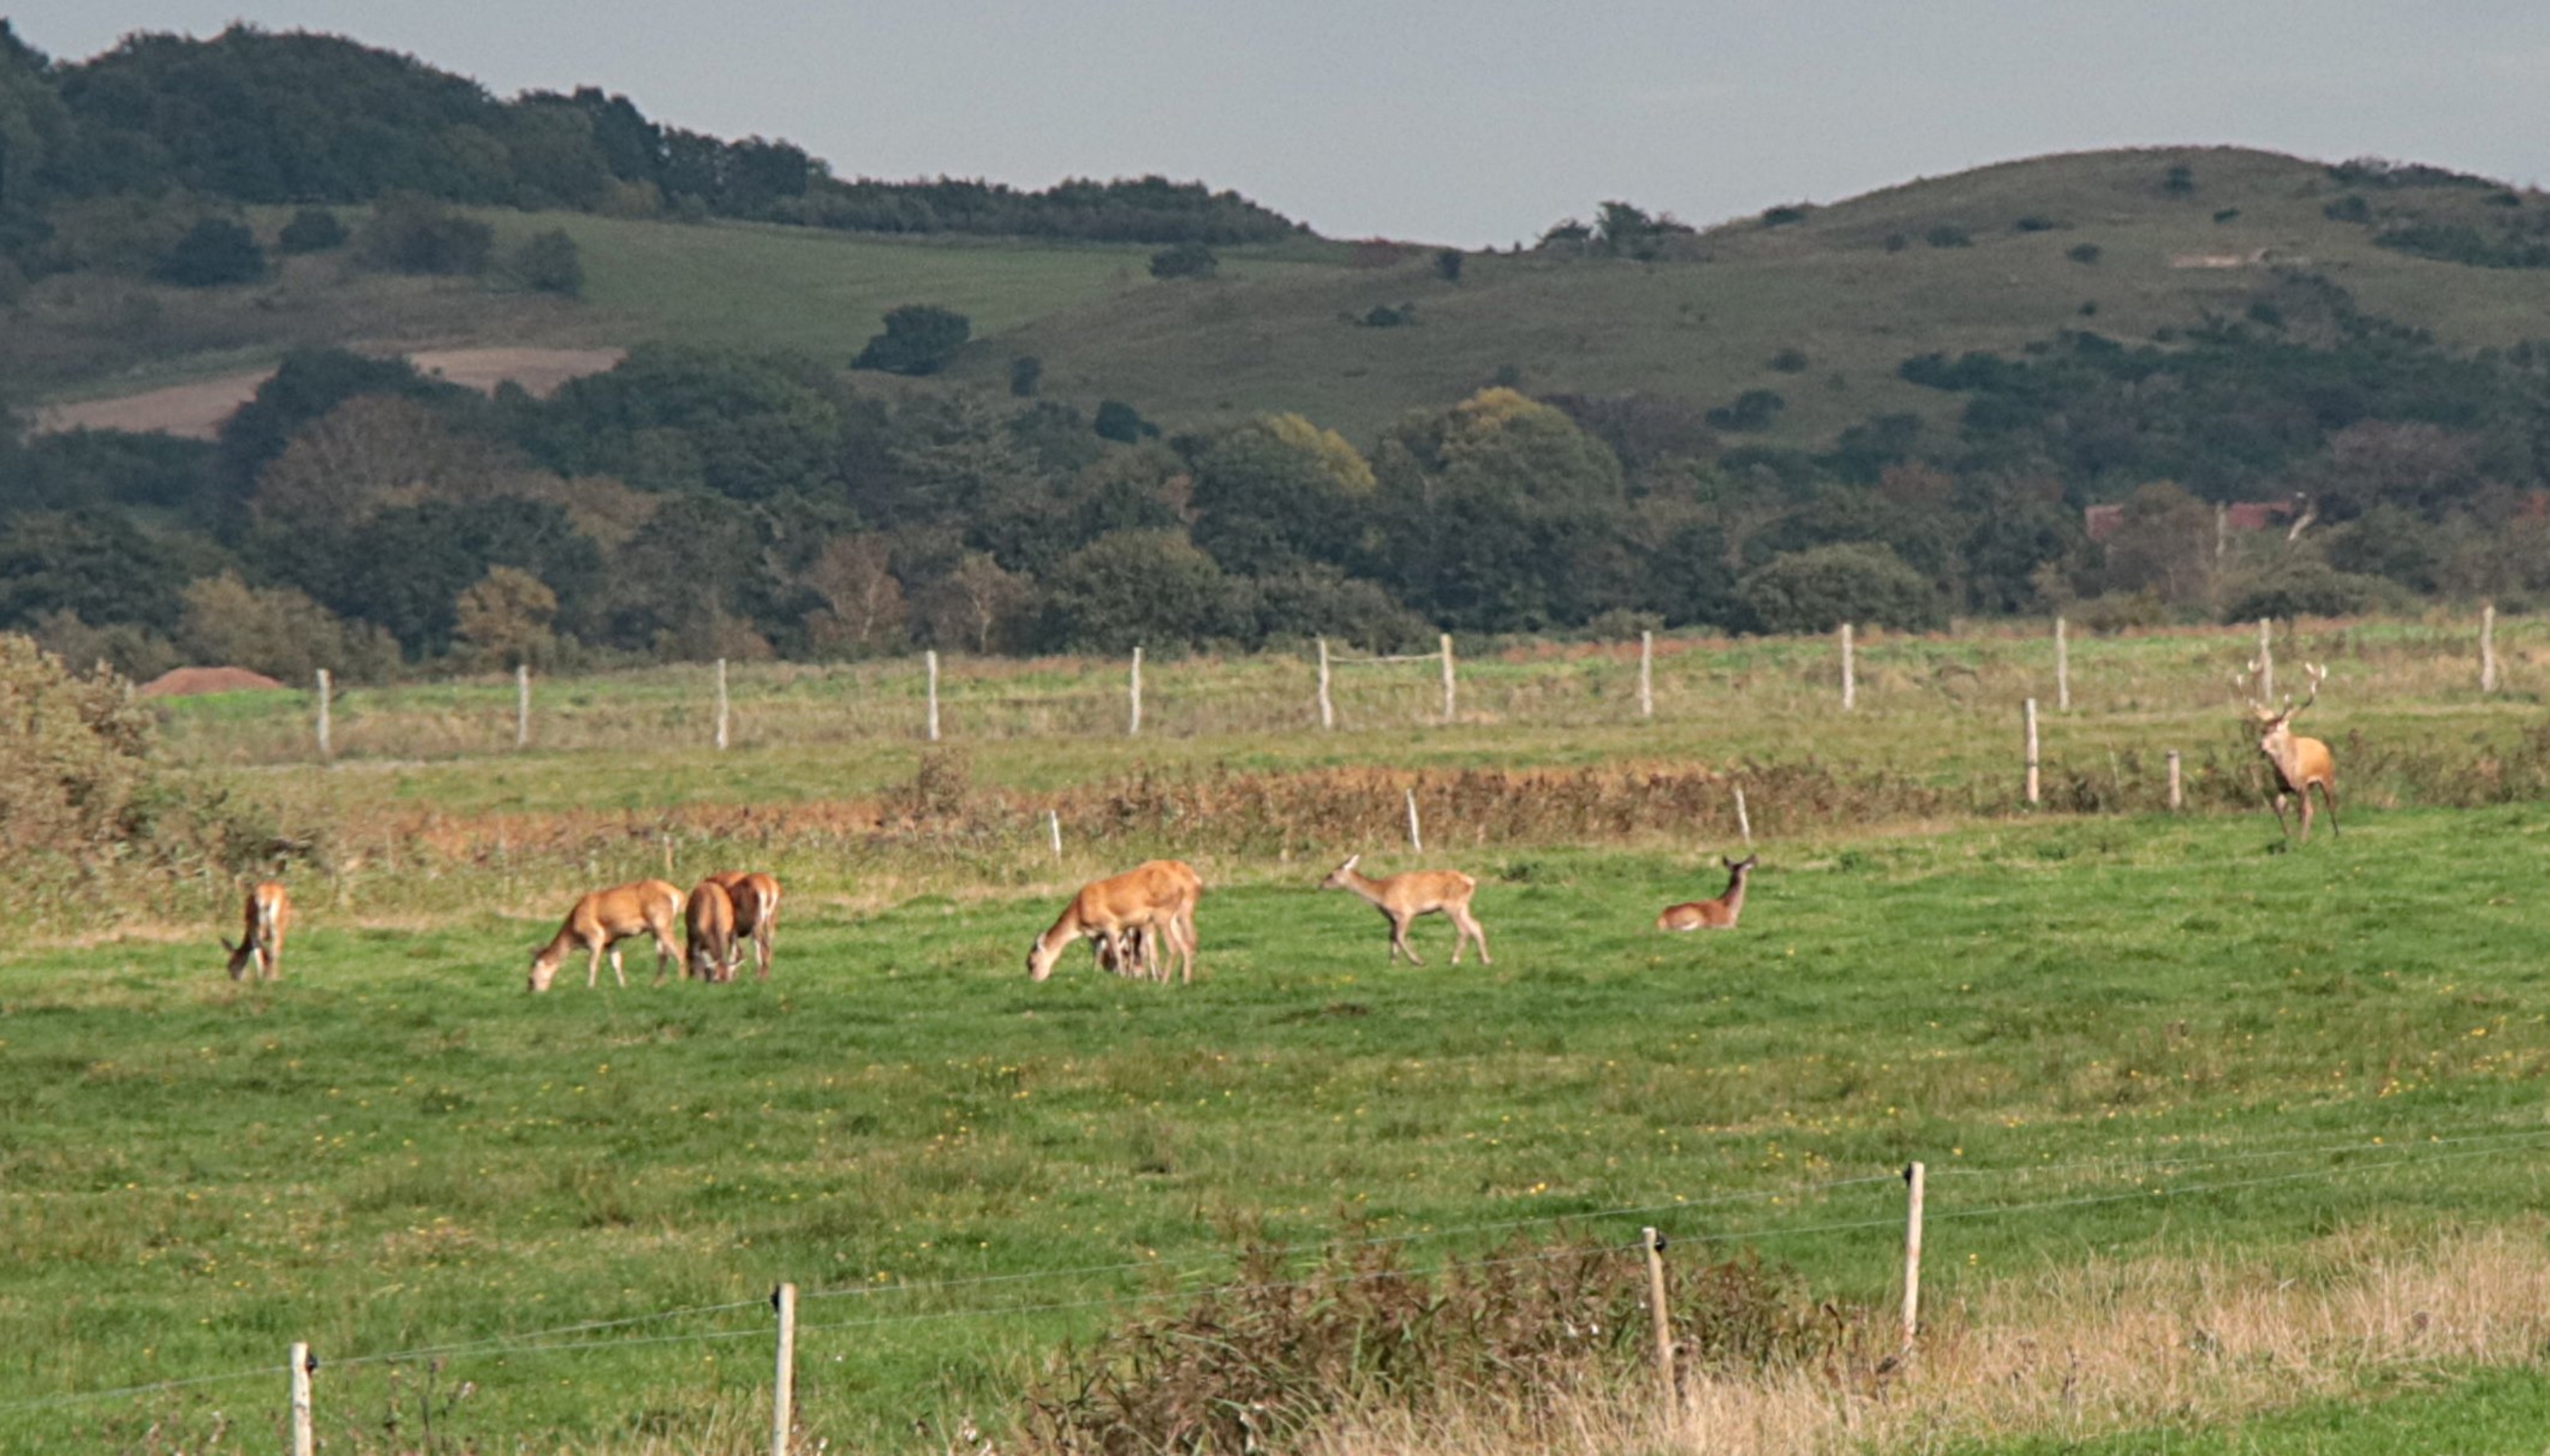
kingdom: Animalia
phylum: Chordata
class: Mammalia
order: Artiodactyla
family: Cervidae
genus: Cervus
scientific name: Cervus elaphus
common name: Krondyr
